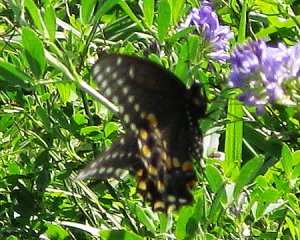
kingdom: Animalia
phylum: Arthropoda
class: Insecta
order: Lepidoptera
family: Papilionidae
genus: Papilio
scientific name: Papilio polyxenes
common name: Black Swallowtail
